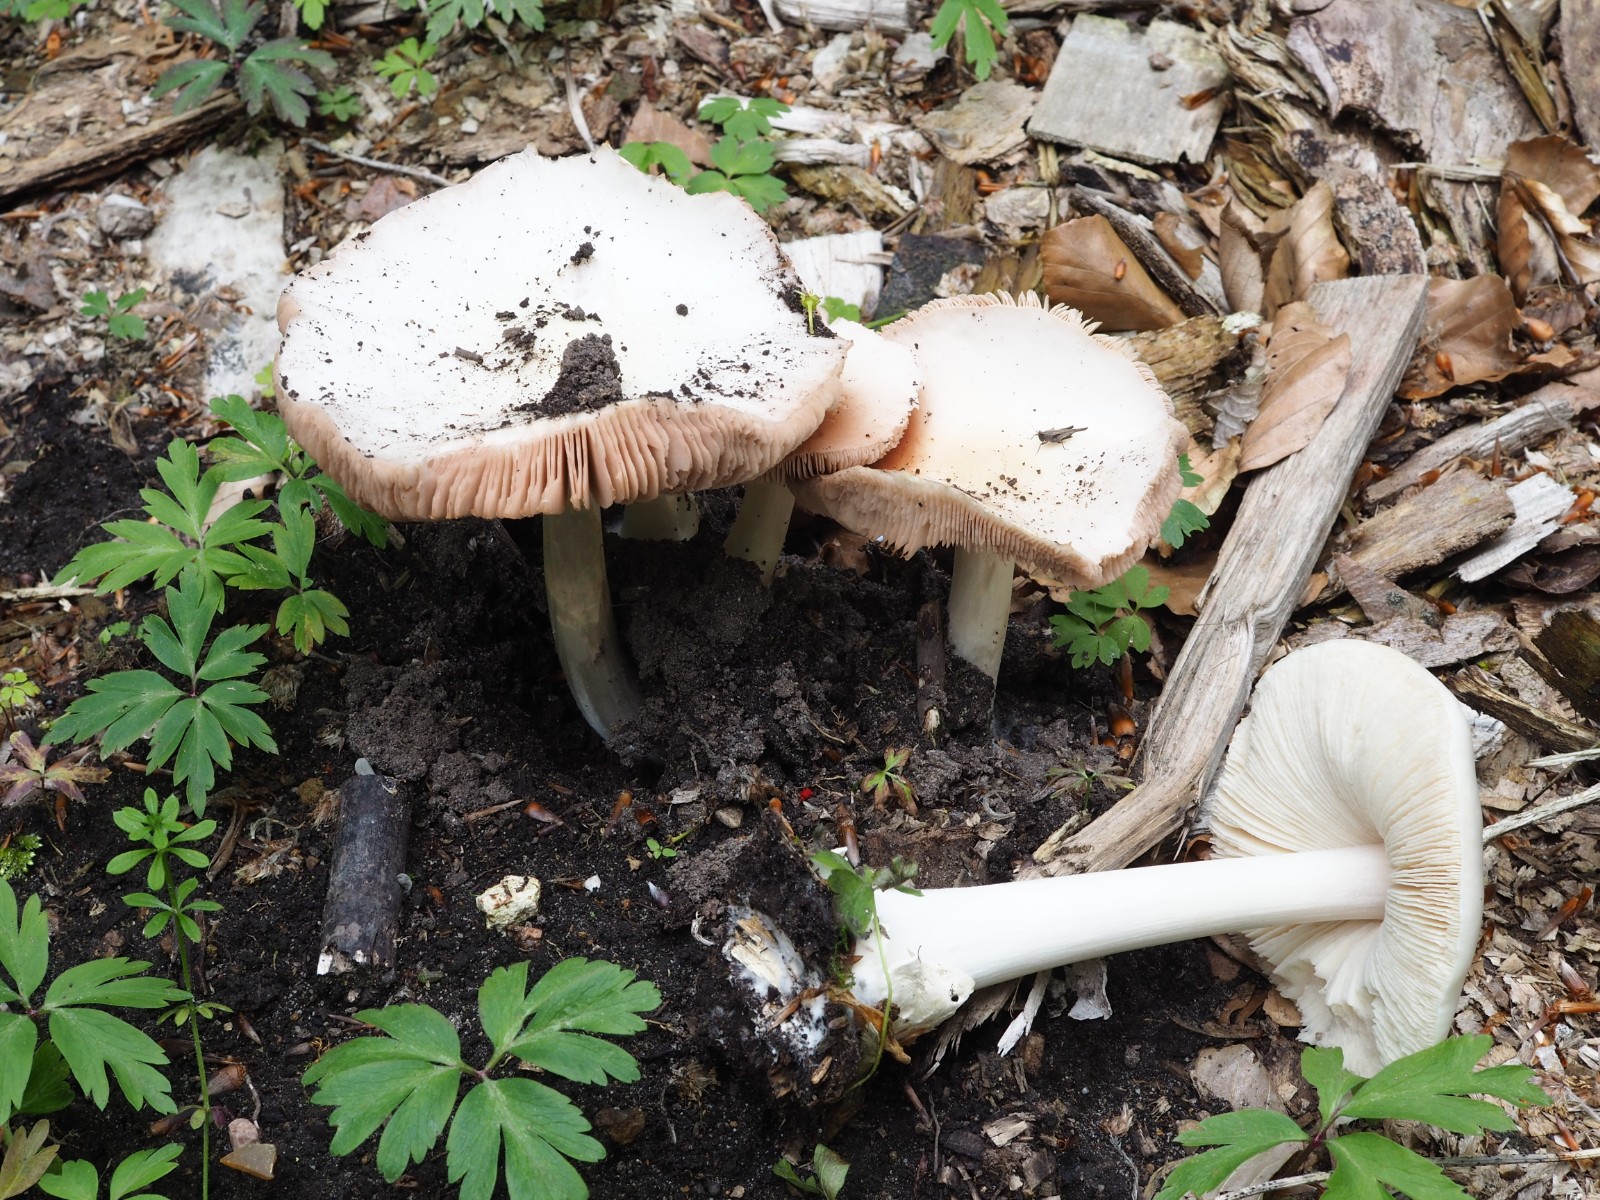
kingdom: Fungi
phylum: Basidiomycota
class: Agaricomycetes
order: Agaricales
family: Pluteaceae
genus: Volvopluteus
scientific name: Volvopluteus gloiocephalus
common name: høj posesvamp
